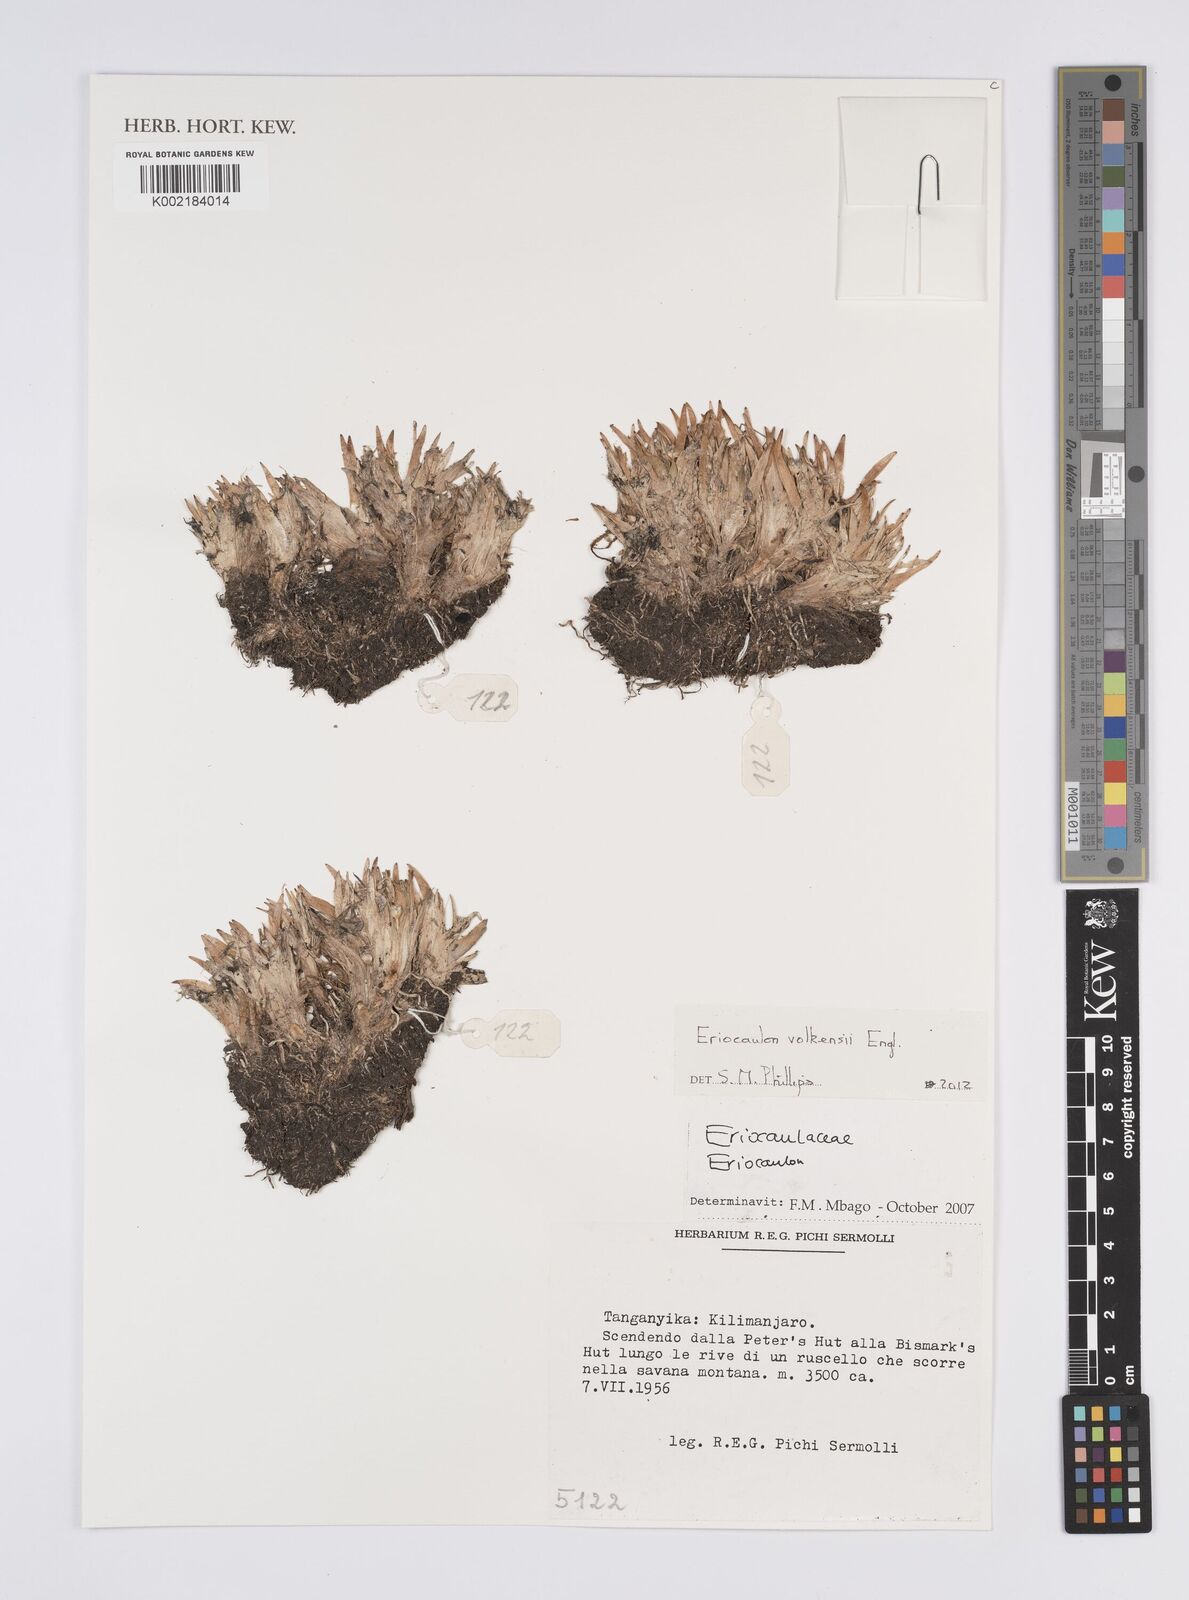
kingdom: Plantae
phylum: Tracheophyta
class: Liliopsida
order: Poales
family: Eriocaulaceae
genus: Eriocaulon
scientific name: Eriocaulon volkensii
